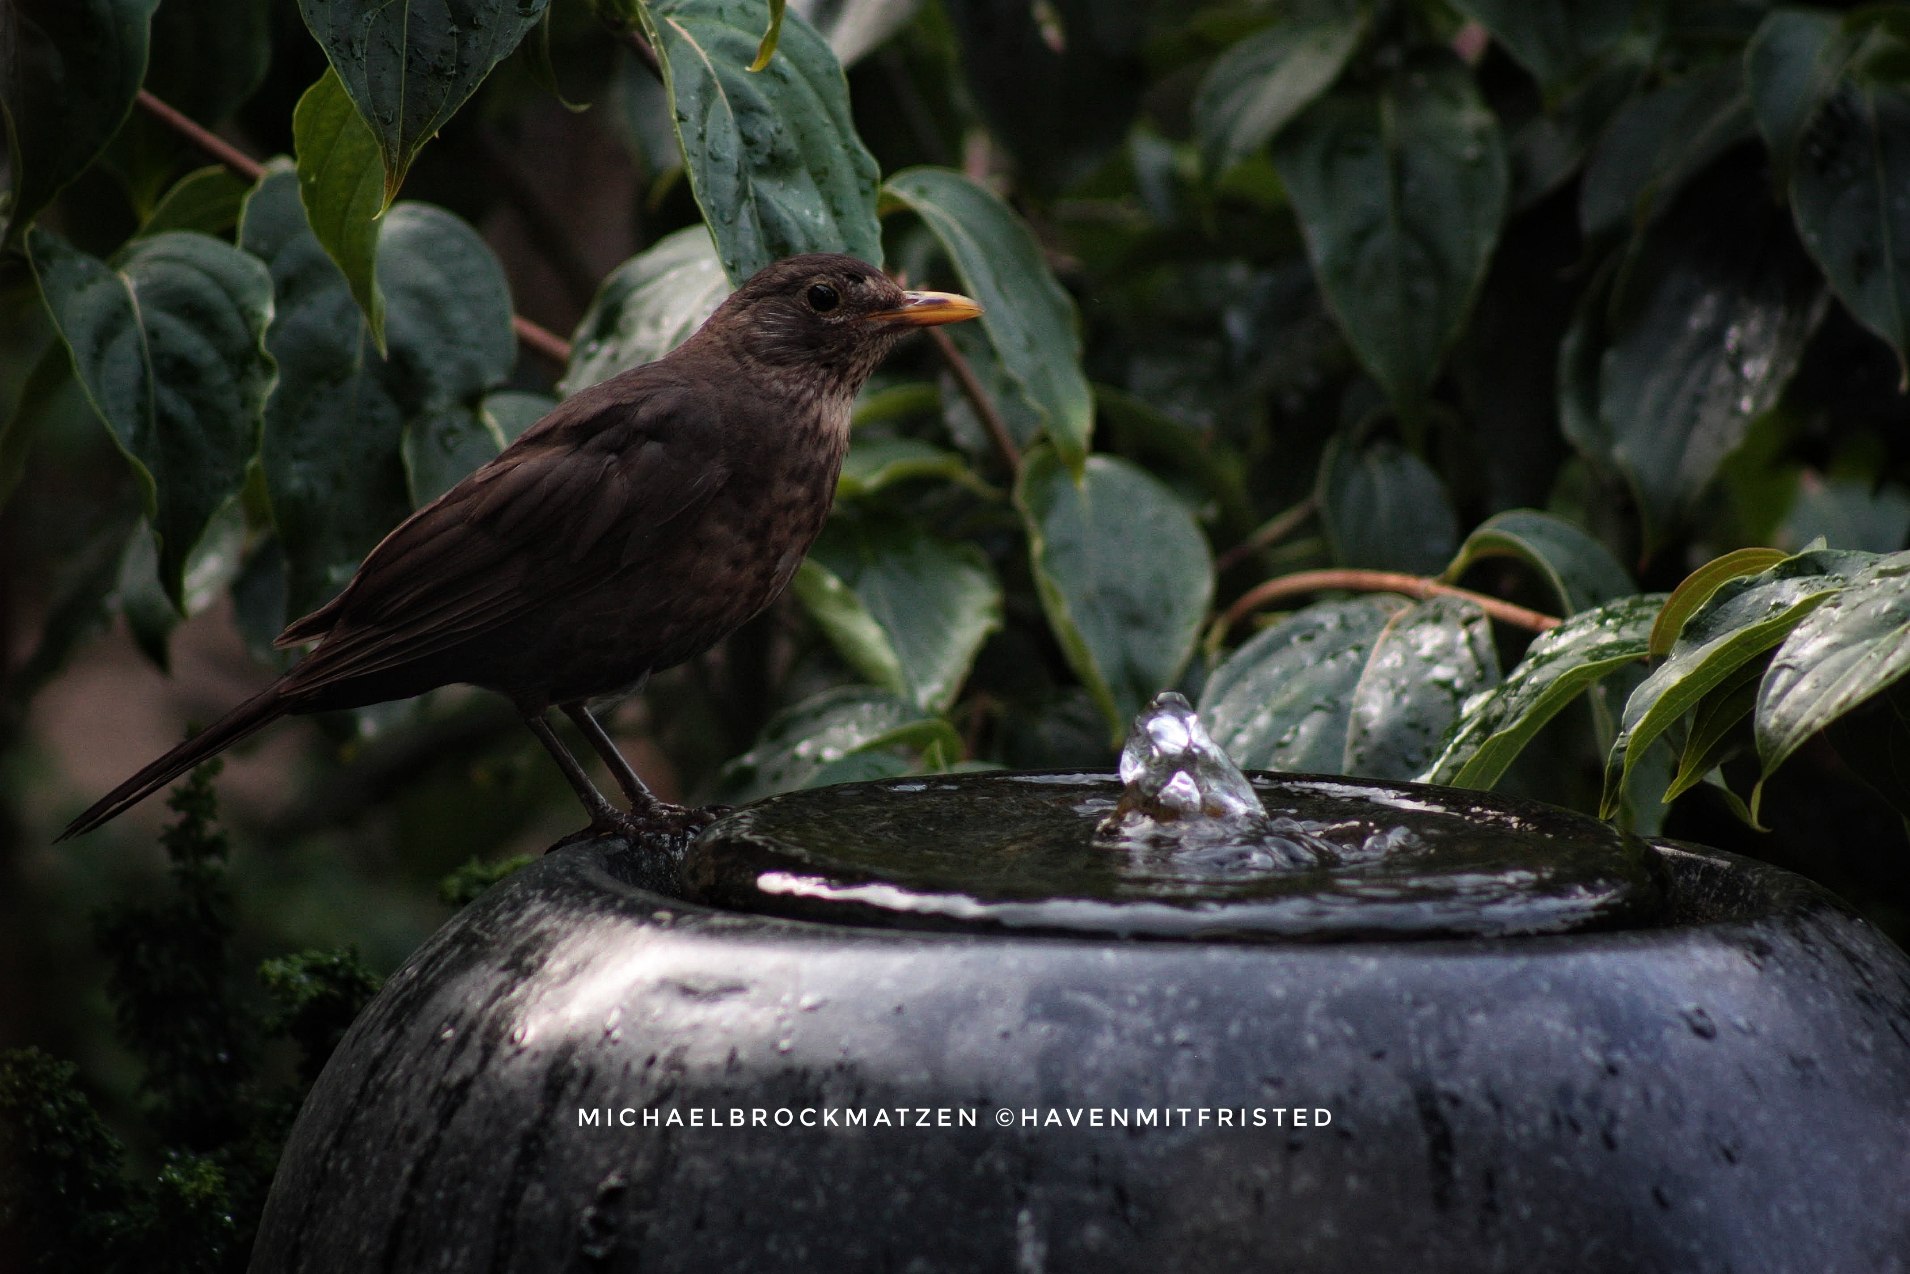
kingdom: Animalia
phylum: Chordata
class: Aves
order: Passeriformes
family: Turdidae
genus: Turdus
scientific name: Turdus merula
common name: Solsort
